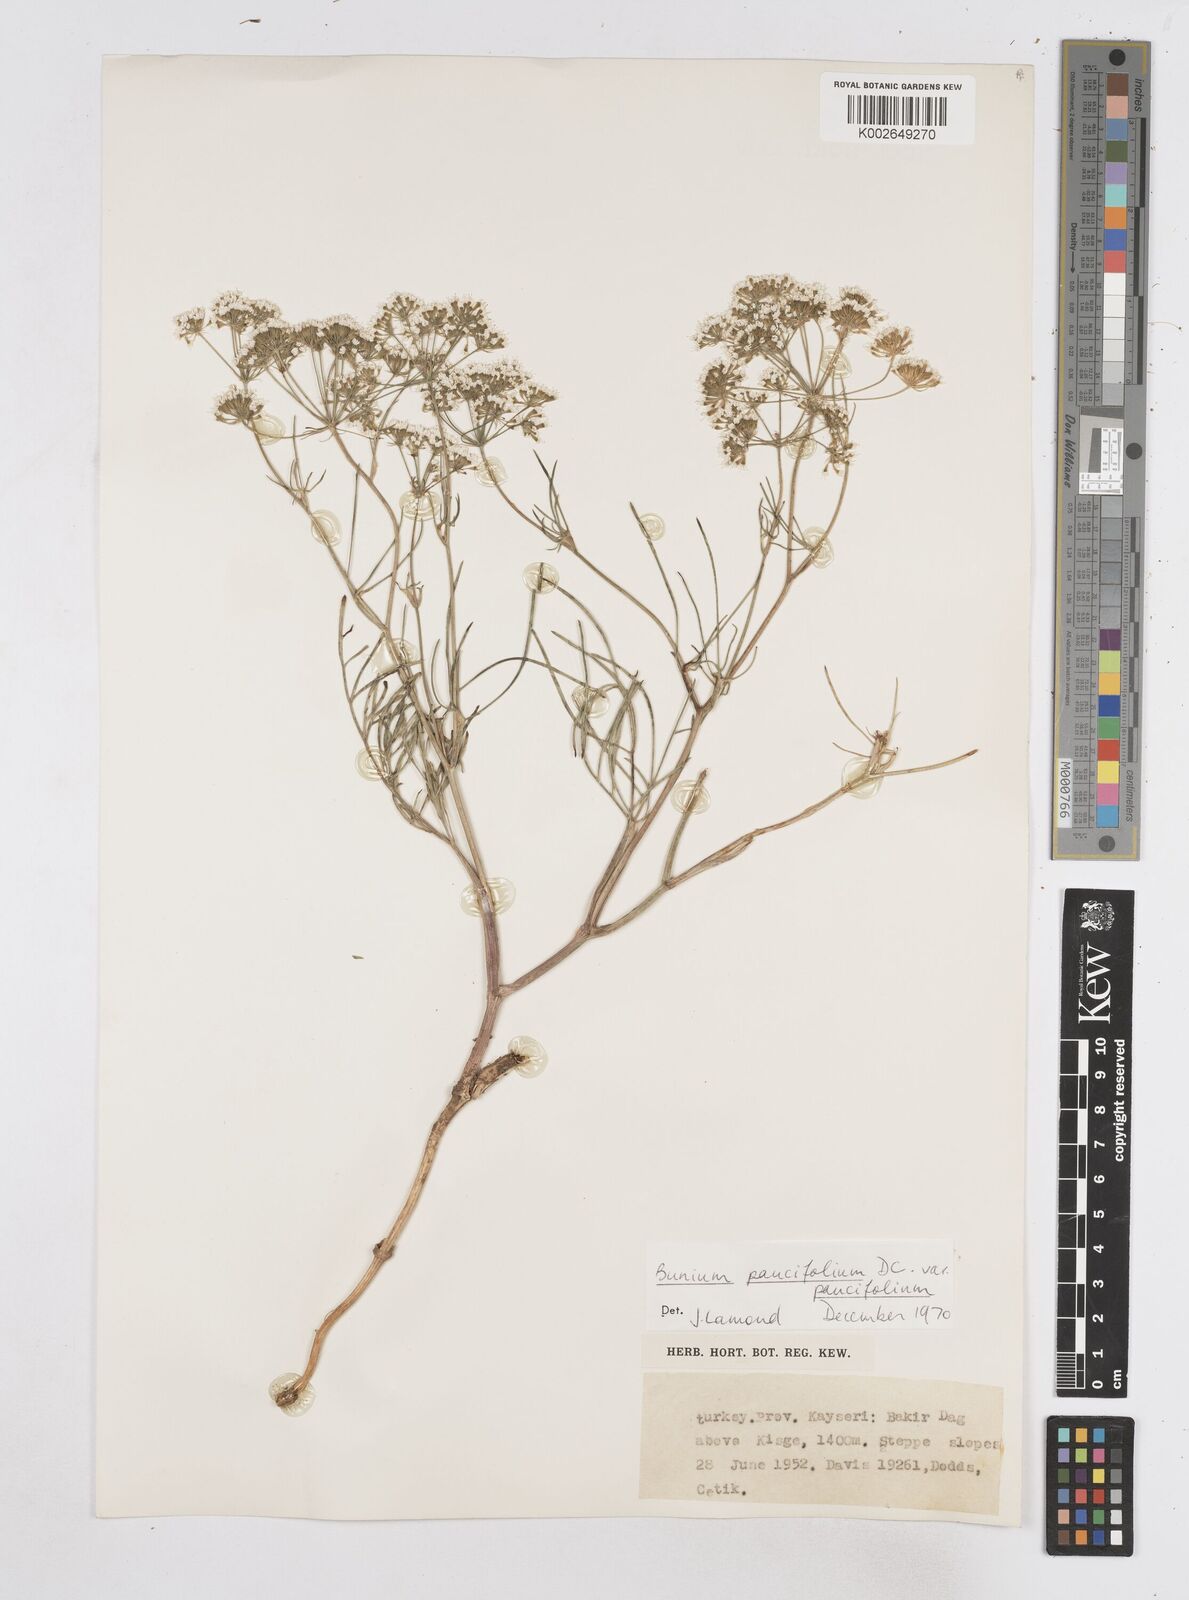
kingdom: Plantae
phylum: Tracheophyta
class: Magnoliopsida
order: Apiales
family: Apiaceae
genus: Bunium
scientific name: Bunium
